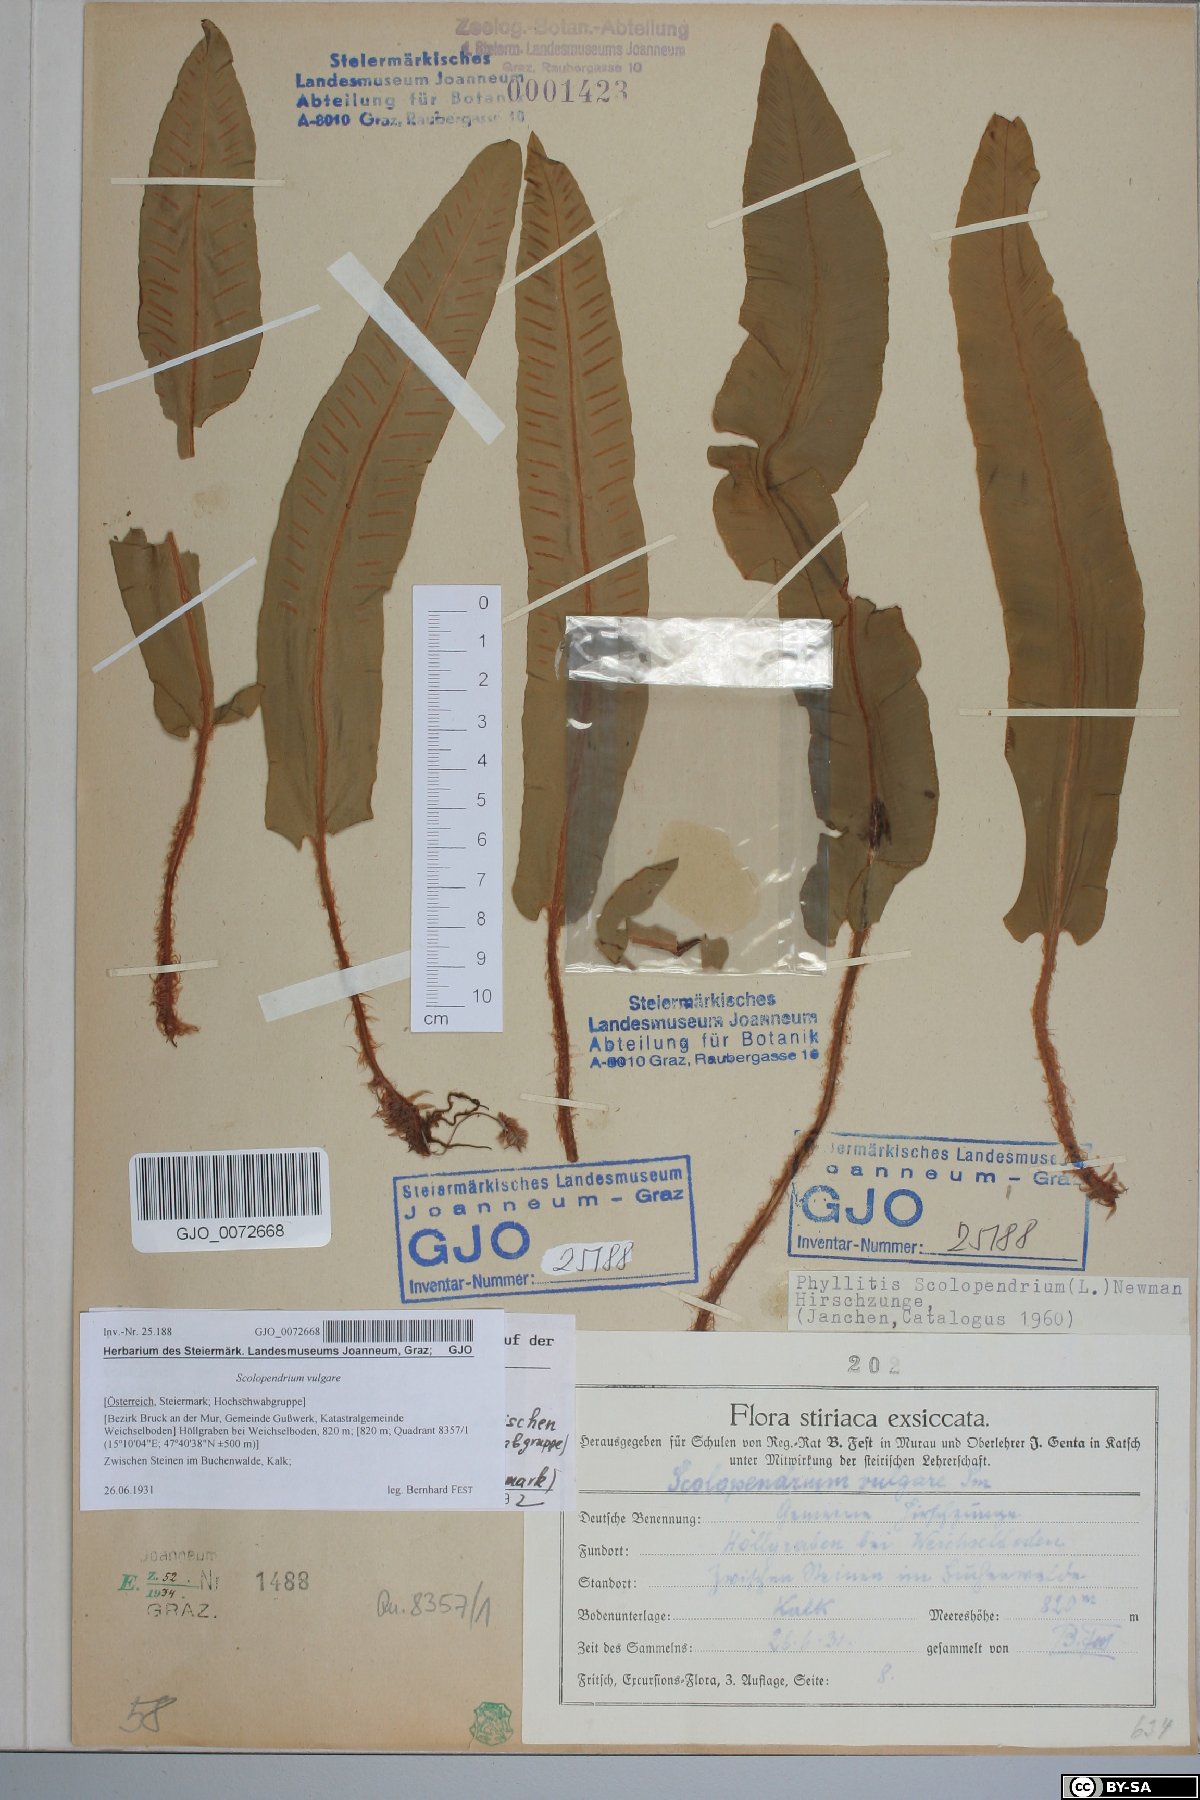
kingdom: Plantae
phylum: Tracheophyta
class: Polypodiopsida
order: Polypodiales
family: Aspleniaceae
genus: Asplenium
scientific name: Asplenium scolopendrium
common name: Hart's-tongue fern
